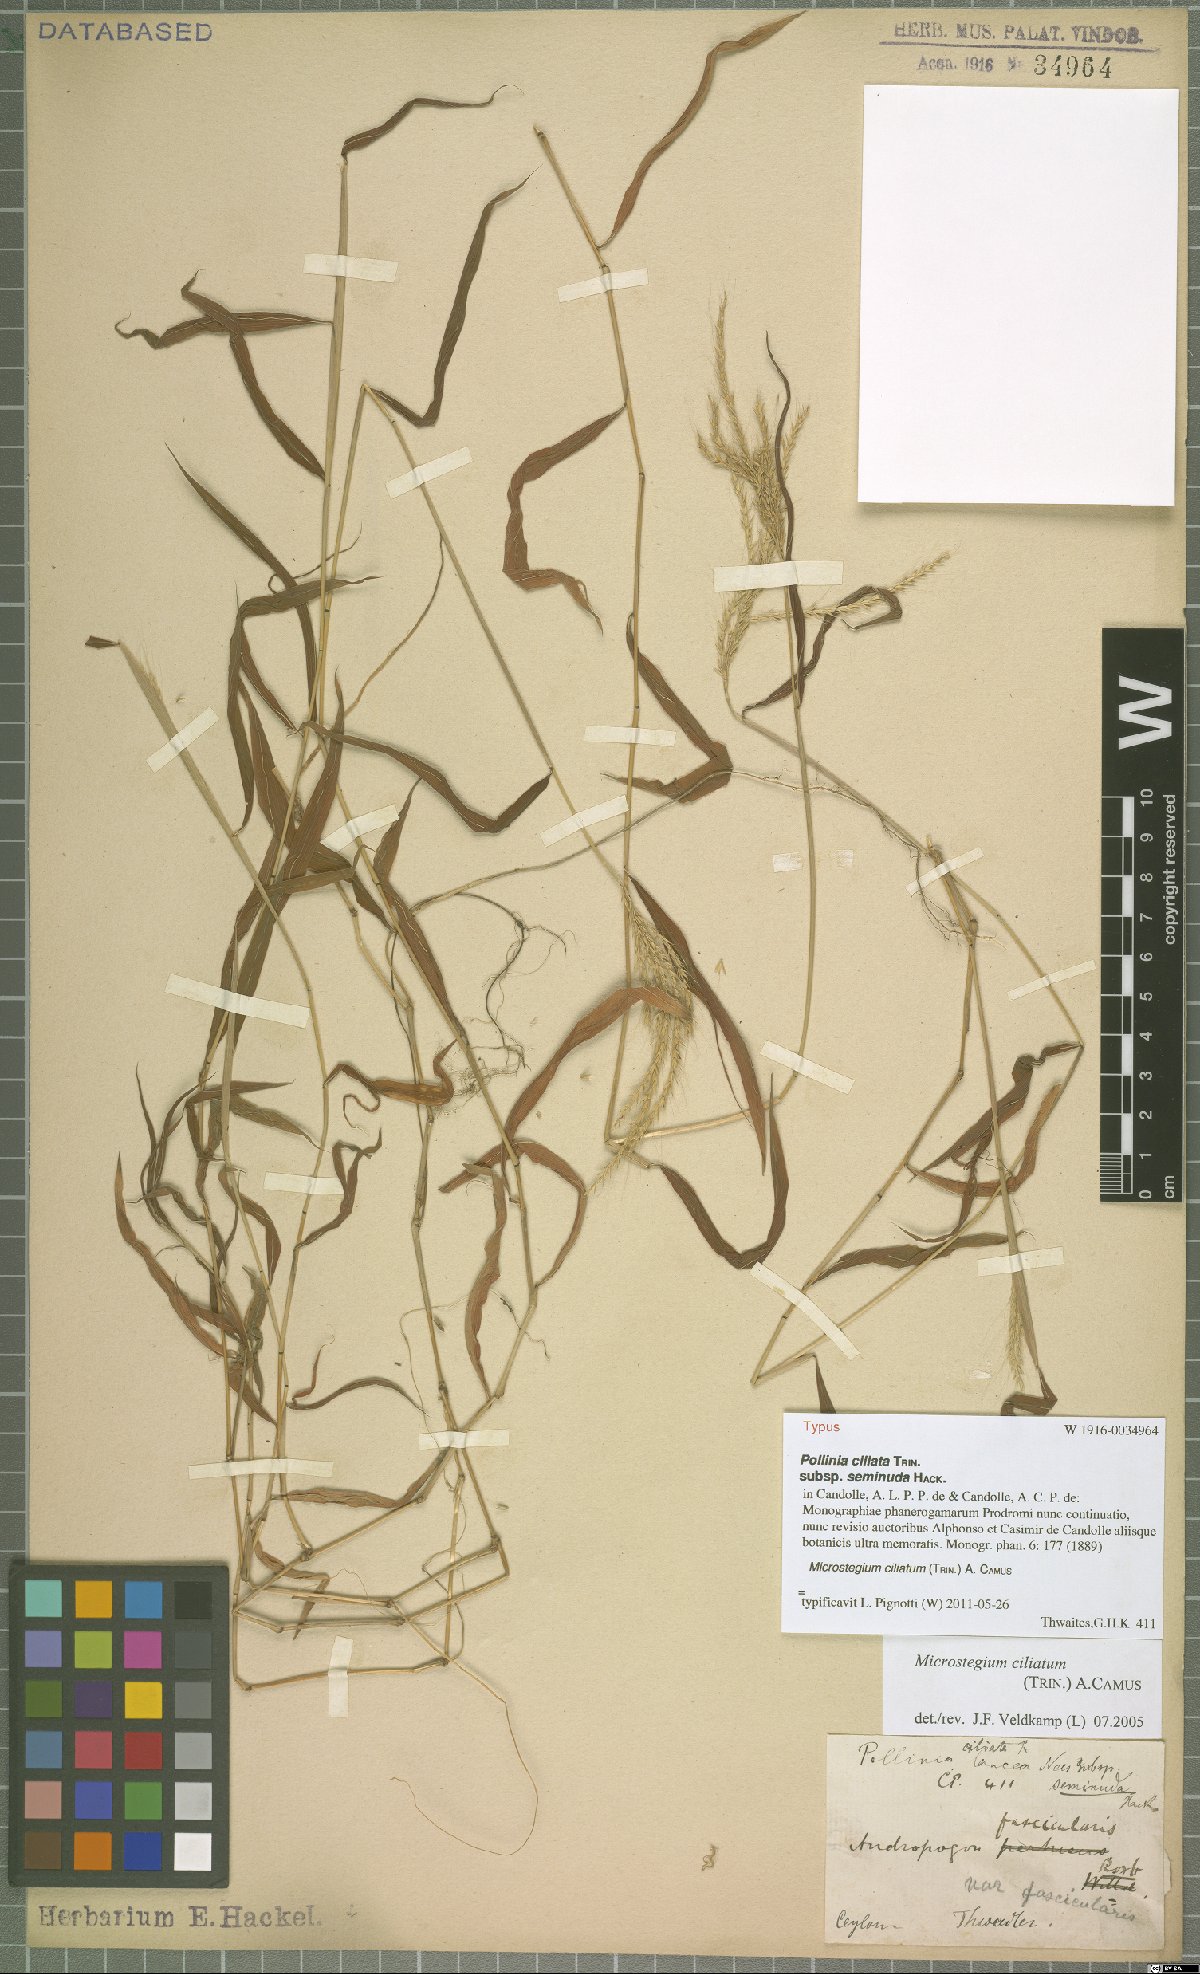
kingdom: Plantae
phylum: Tracheophyta
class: Liliopsida
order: Poales
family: Poaceae
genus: Microstegium
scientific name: Microstegium fasciculatum
